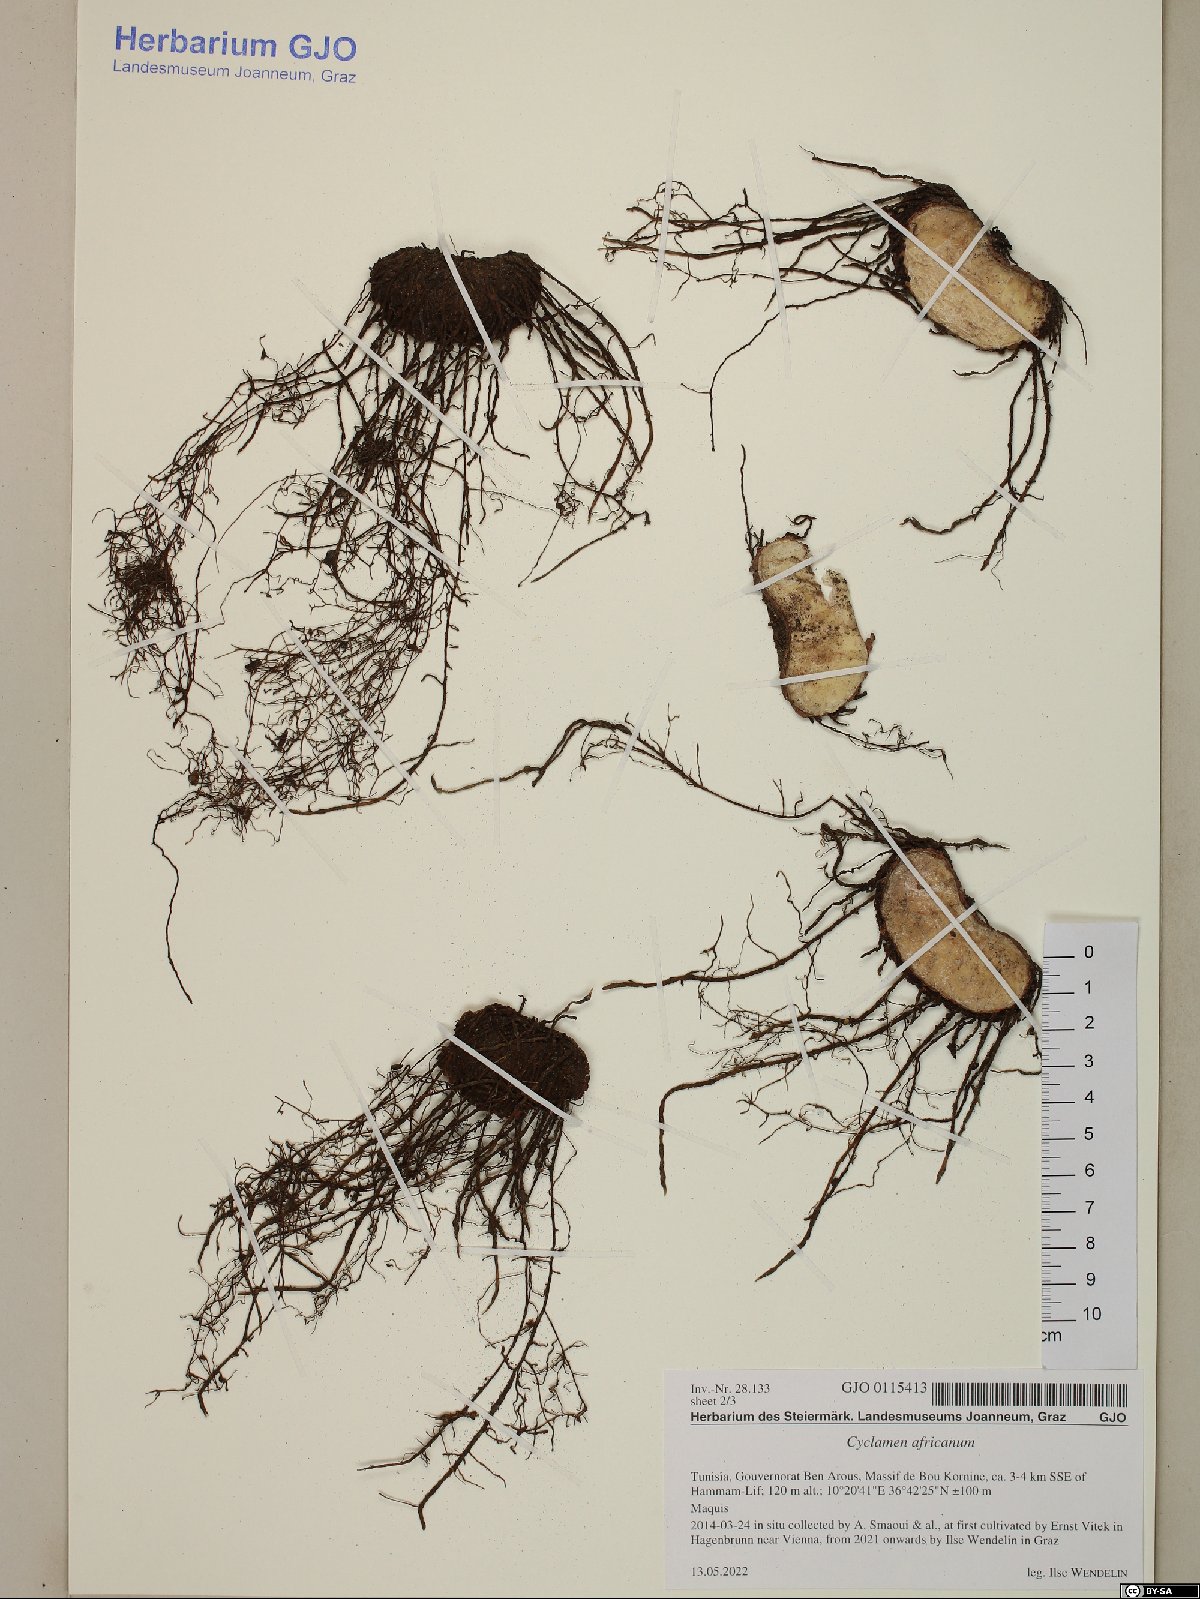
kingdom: Plantae
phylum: Tracheophyta
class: Magnoliopsida
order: Ericales
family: Primulaceae
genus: Cyclamen
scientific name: Cyclamen africanum
